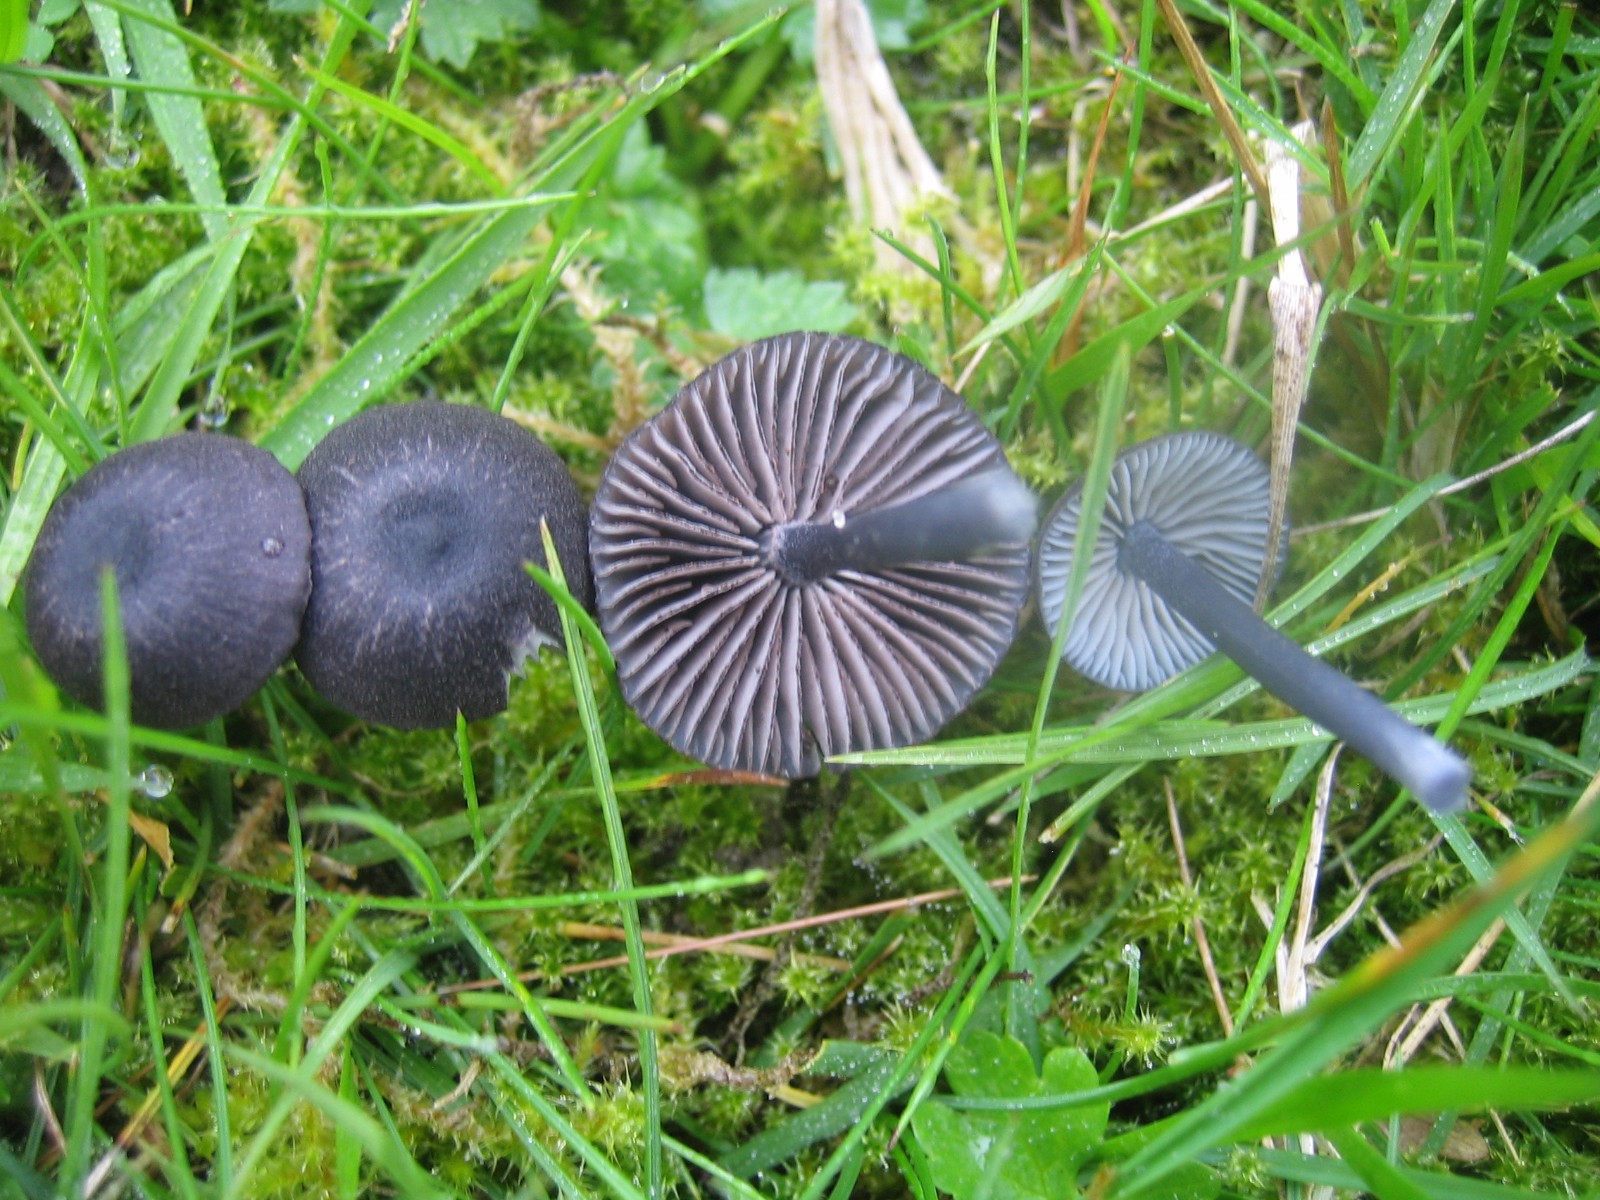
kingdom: Fungi
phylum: Basidiomycota
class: Agaricomycetes
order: Agaricales
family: Entolomataceae
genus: Entoloma
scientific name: Entoloma
